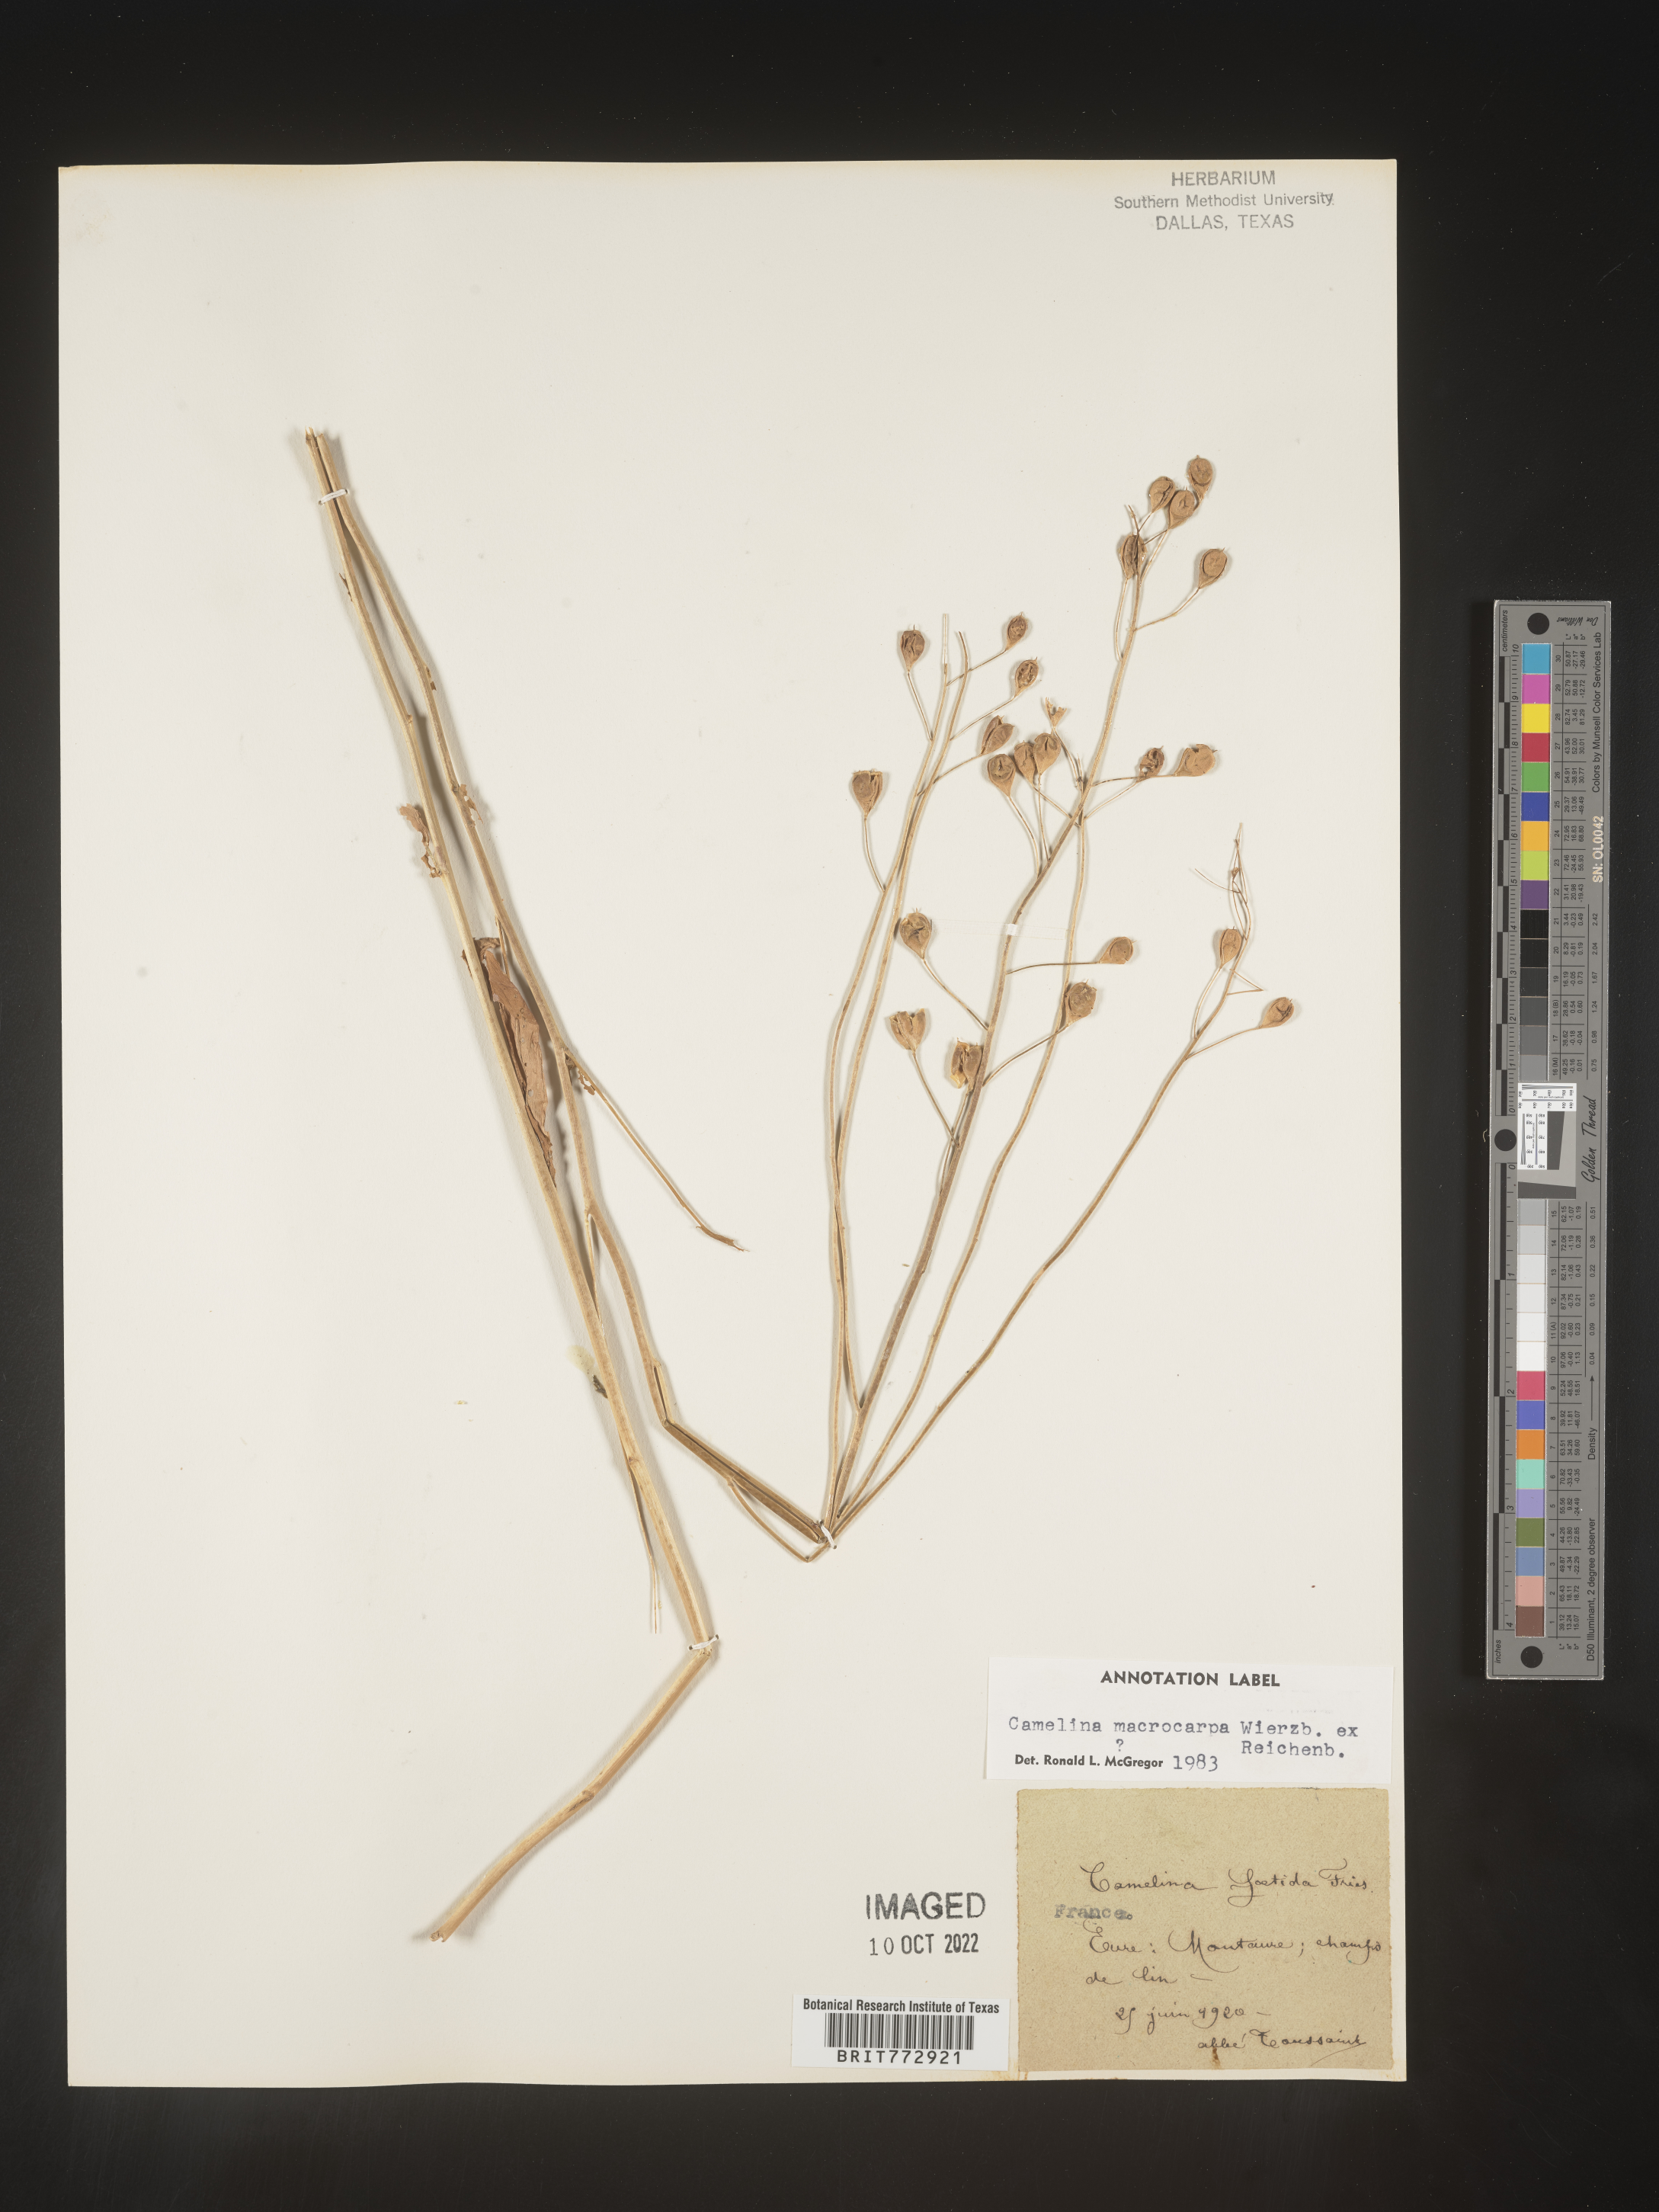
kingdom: Plantae
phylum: Tracheophyta
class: Magnoliopsida
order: Brassicales
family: Brassicaceae
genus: Camelina
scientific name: Camelina
